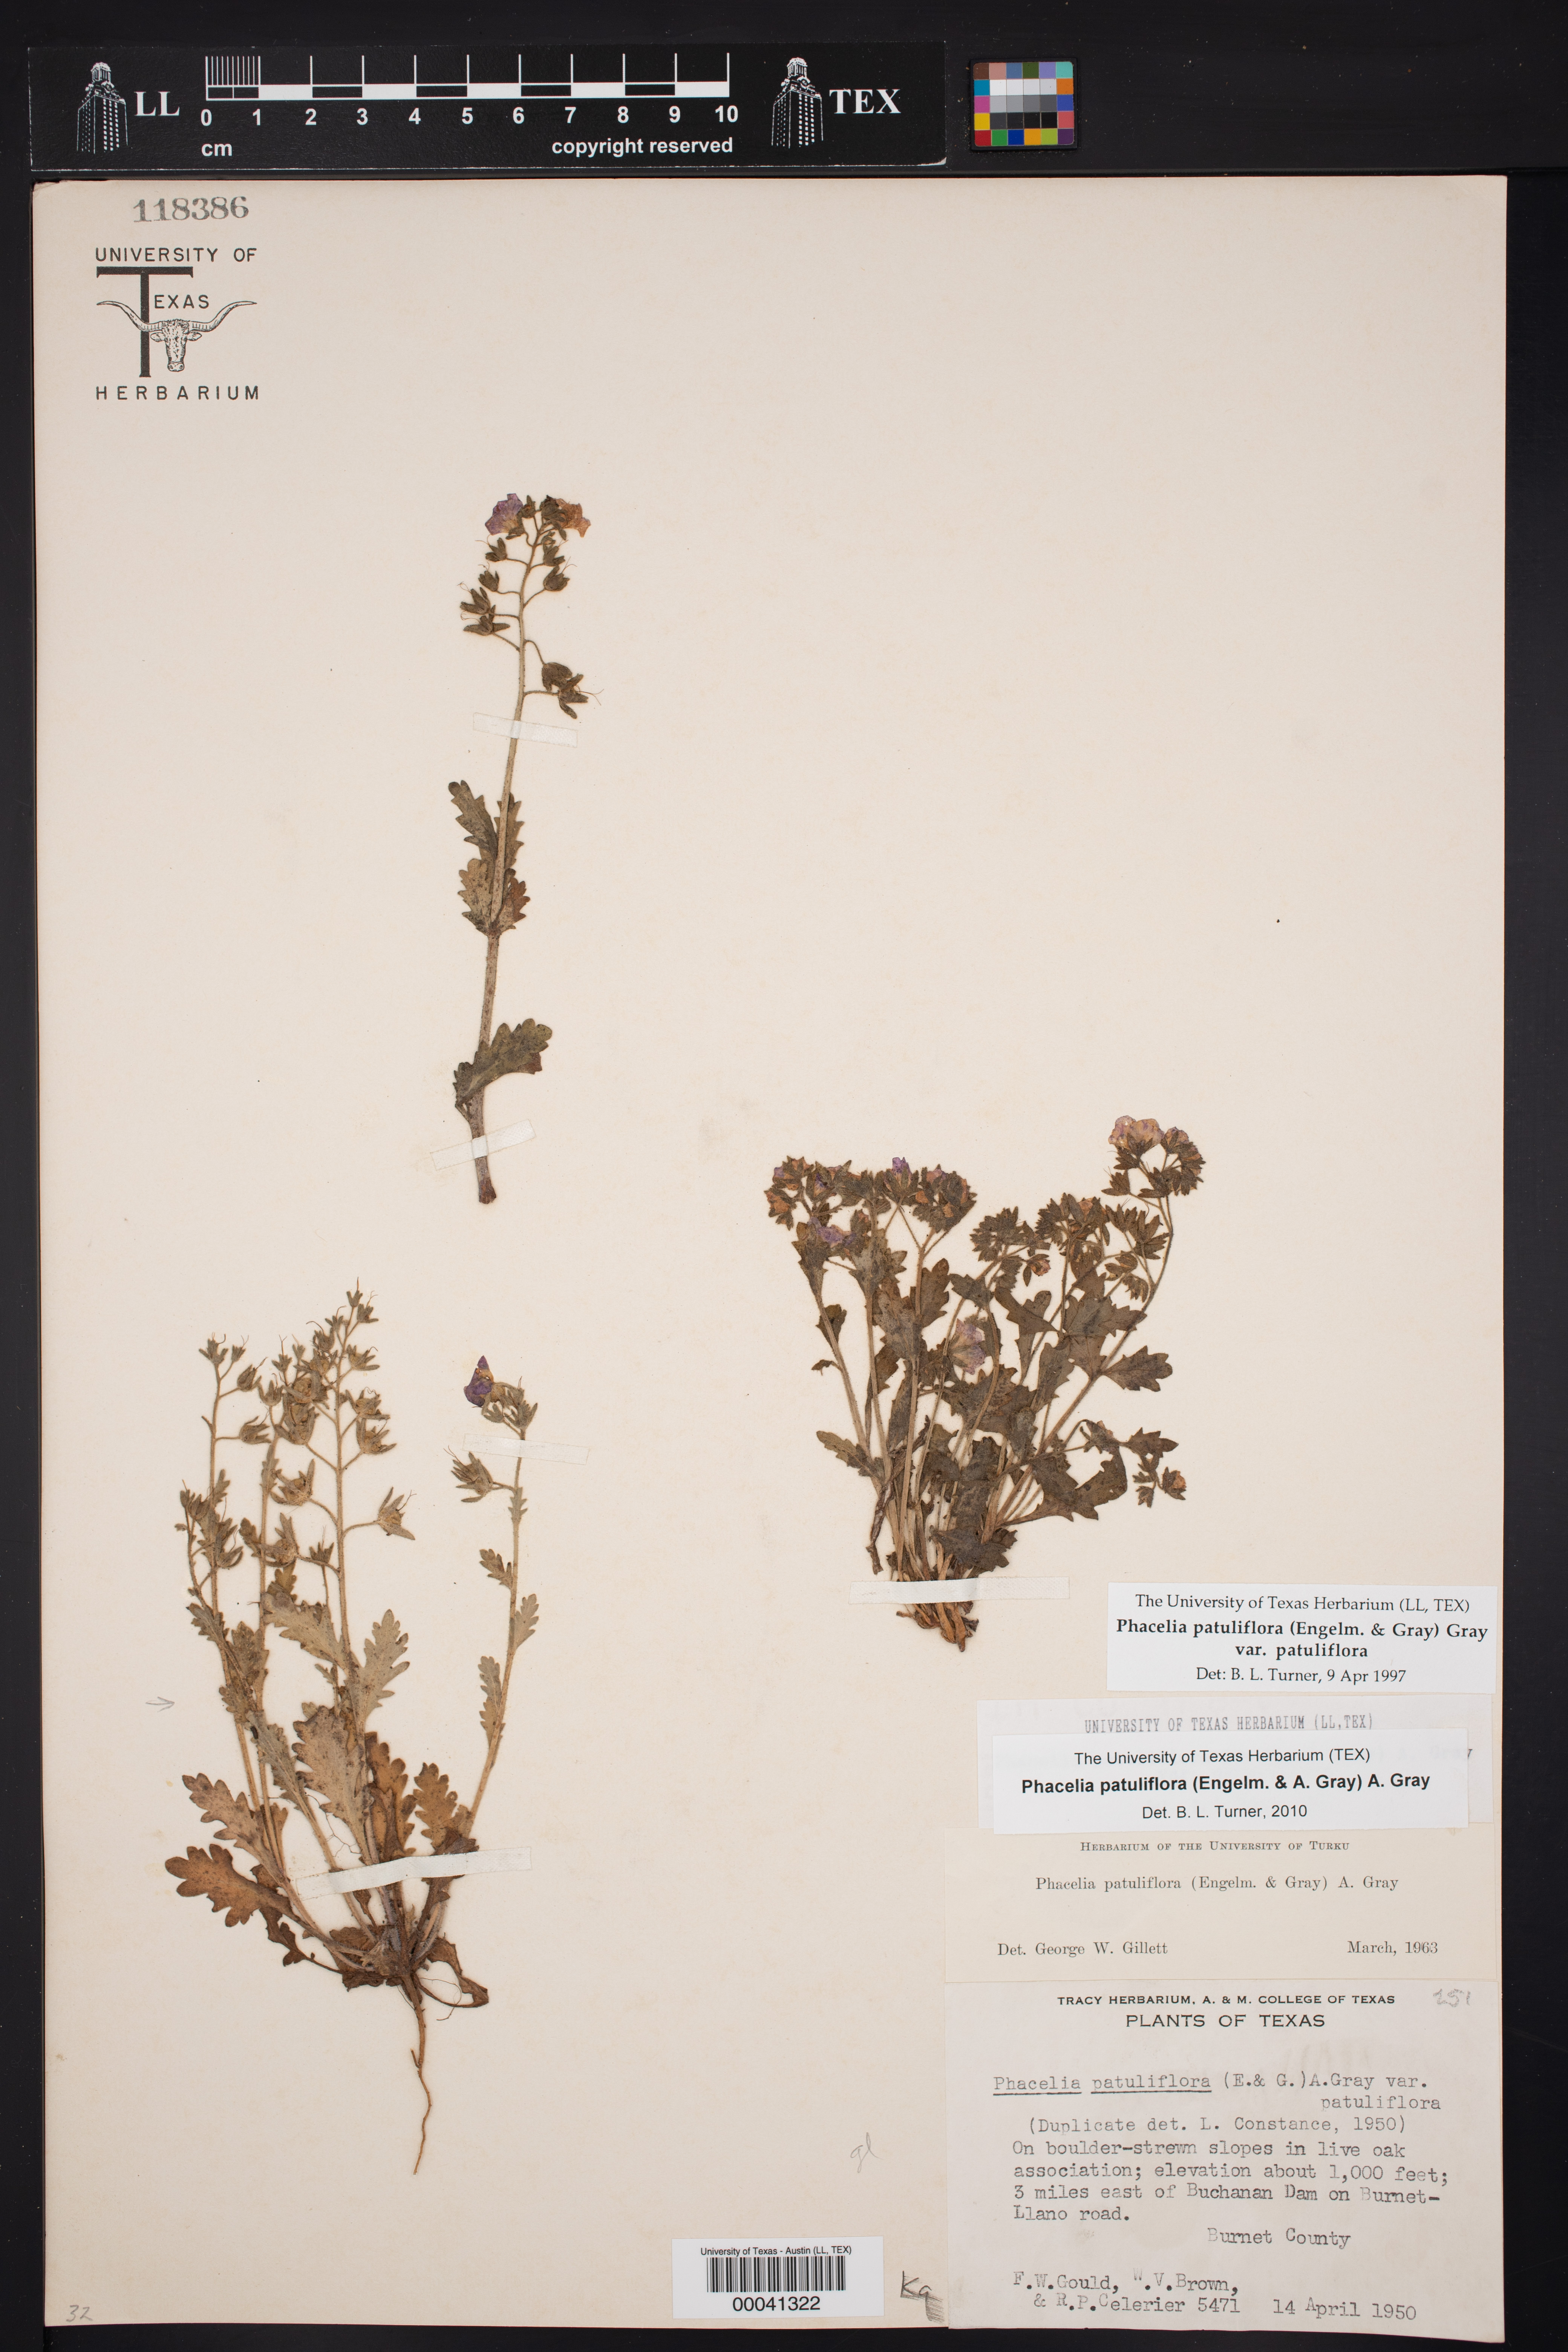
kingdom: Plantae
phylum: Tracheophyta
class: Magnoliopsida
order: Boraginales
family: Hydrophyllaceae
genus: Phacelia
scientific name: Phacelia patuliflora
